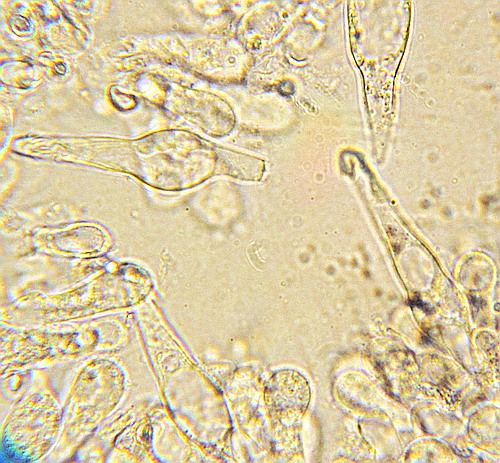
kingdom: Fungi
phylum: Basidiomycota
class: Agaricomycetes
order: Agaricales
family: Tricholomataceae
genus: Melanoleuca
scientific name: Melanoleuca cognata
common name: gyldengrå munkehat
